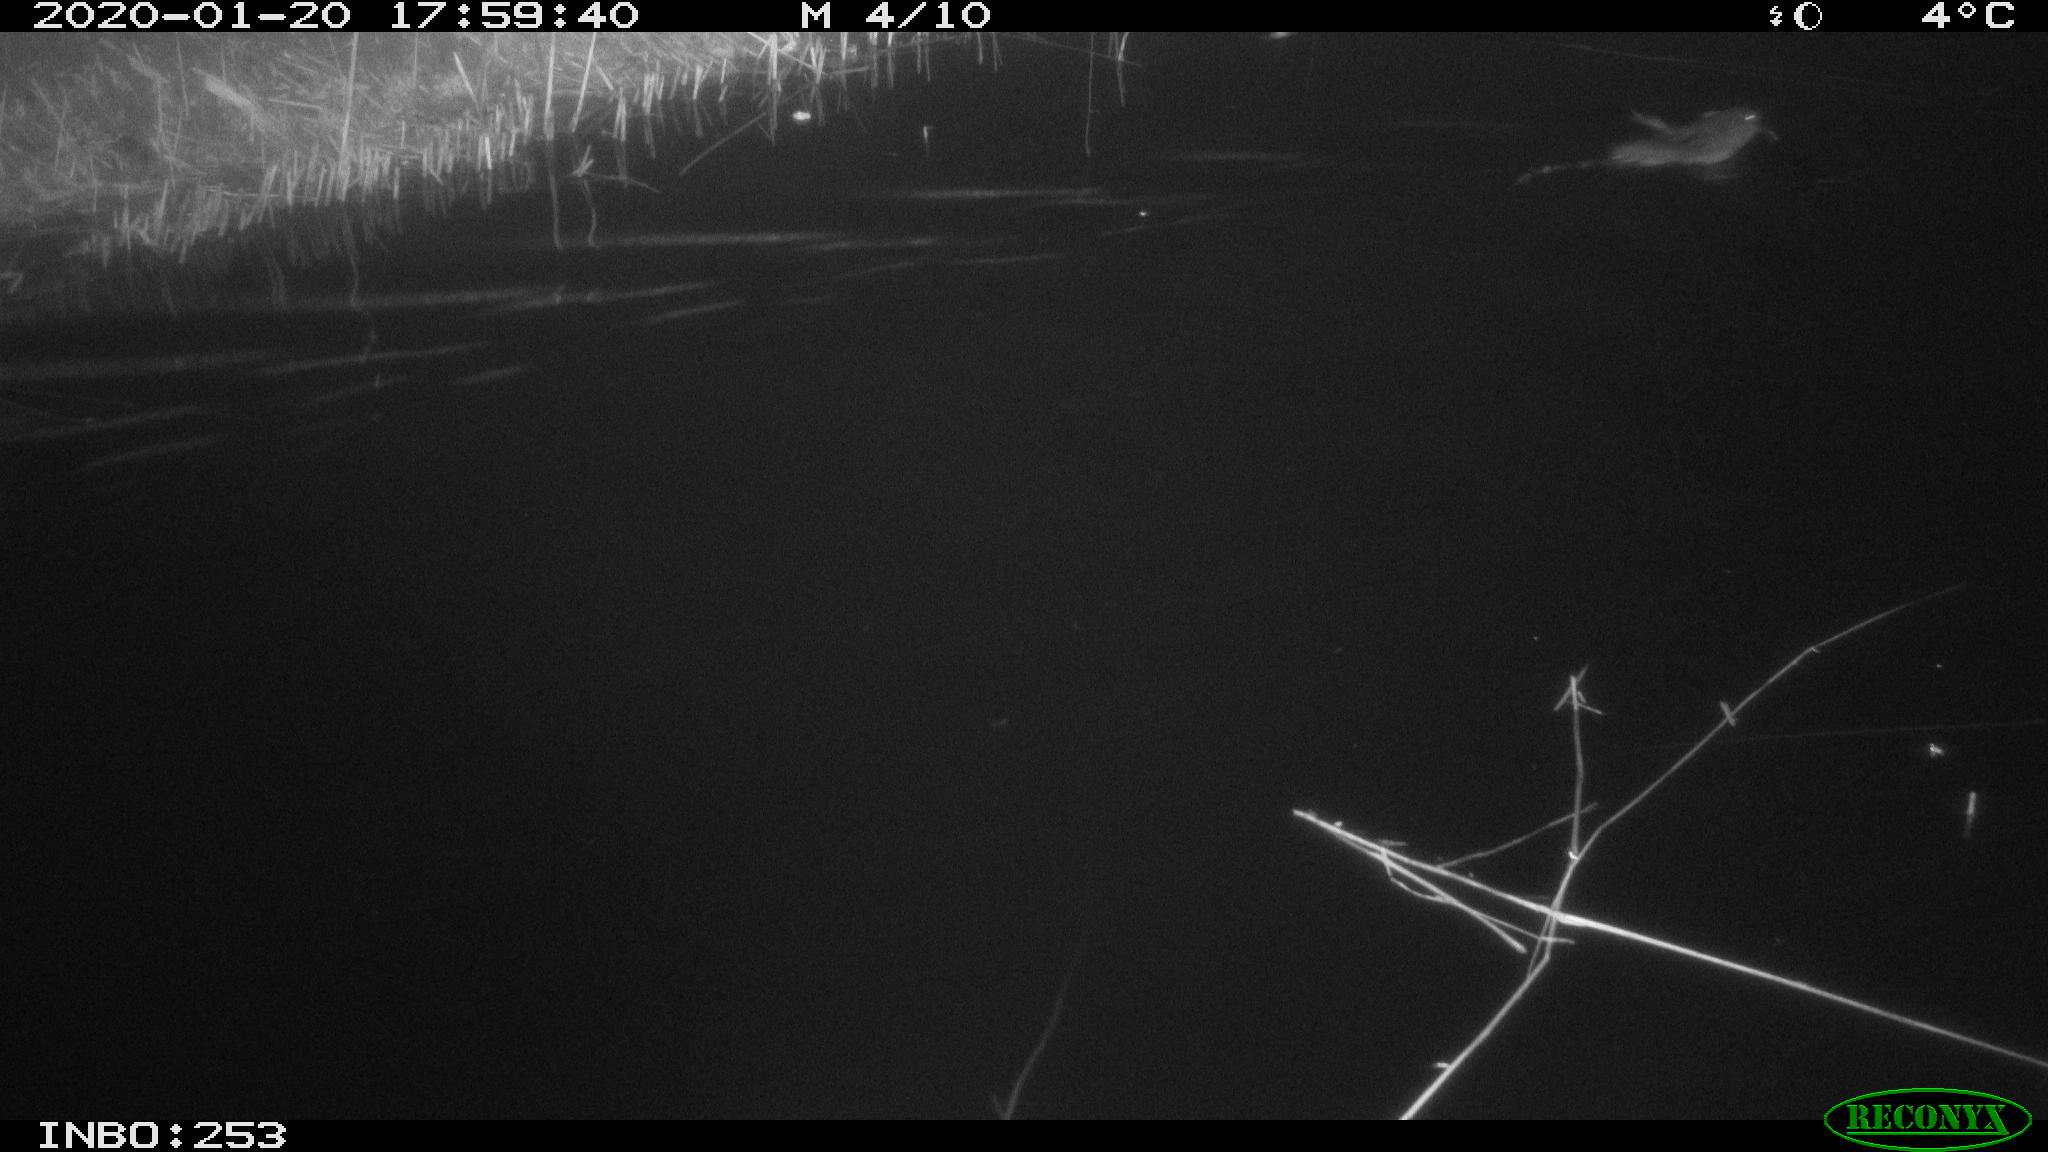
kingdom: Animalia
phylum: Chordata
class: Mammalia
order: Rodentia
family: Cricetidae
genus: Ondatra
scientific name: Ondatra zibethicus
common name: Muskrat
